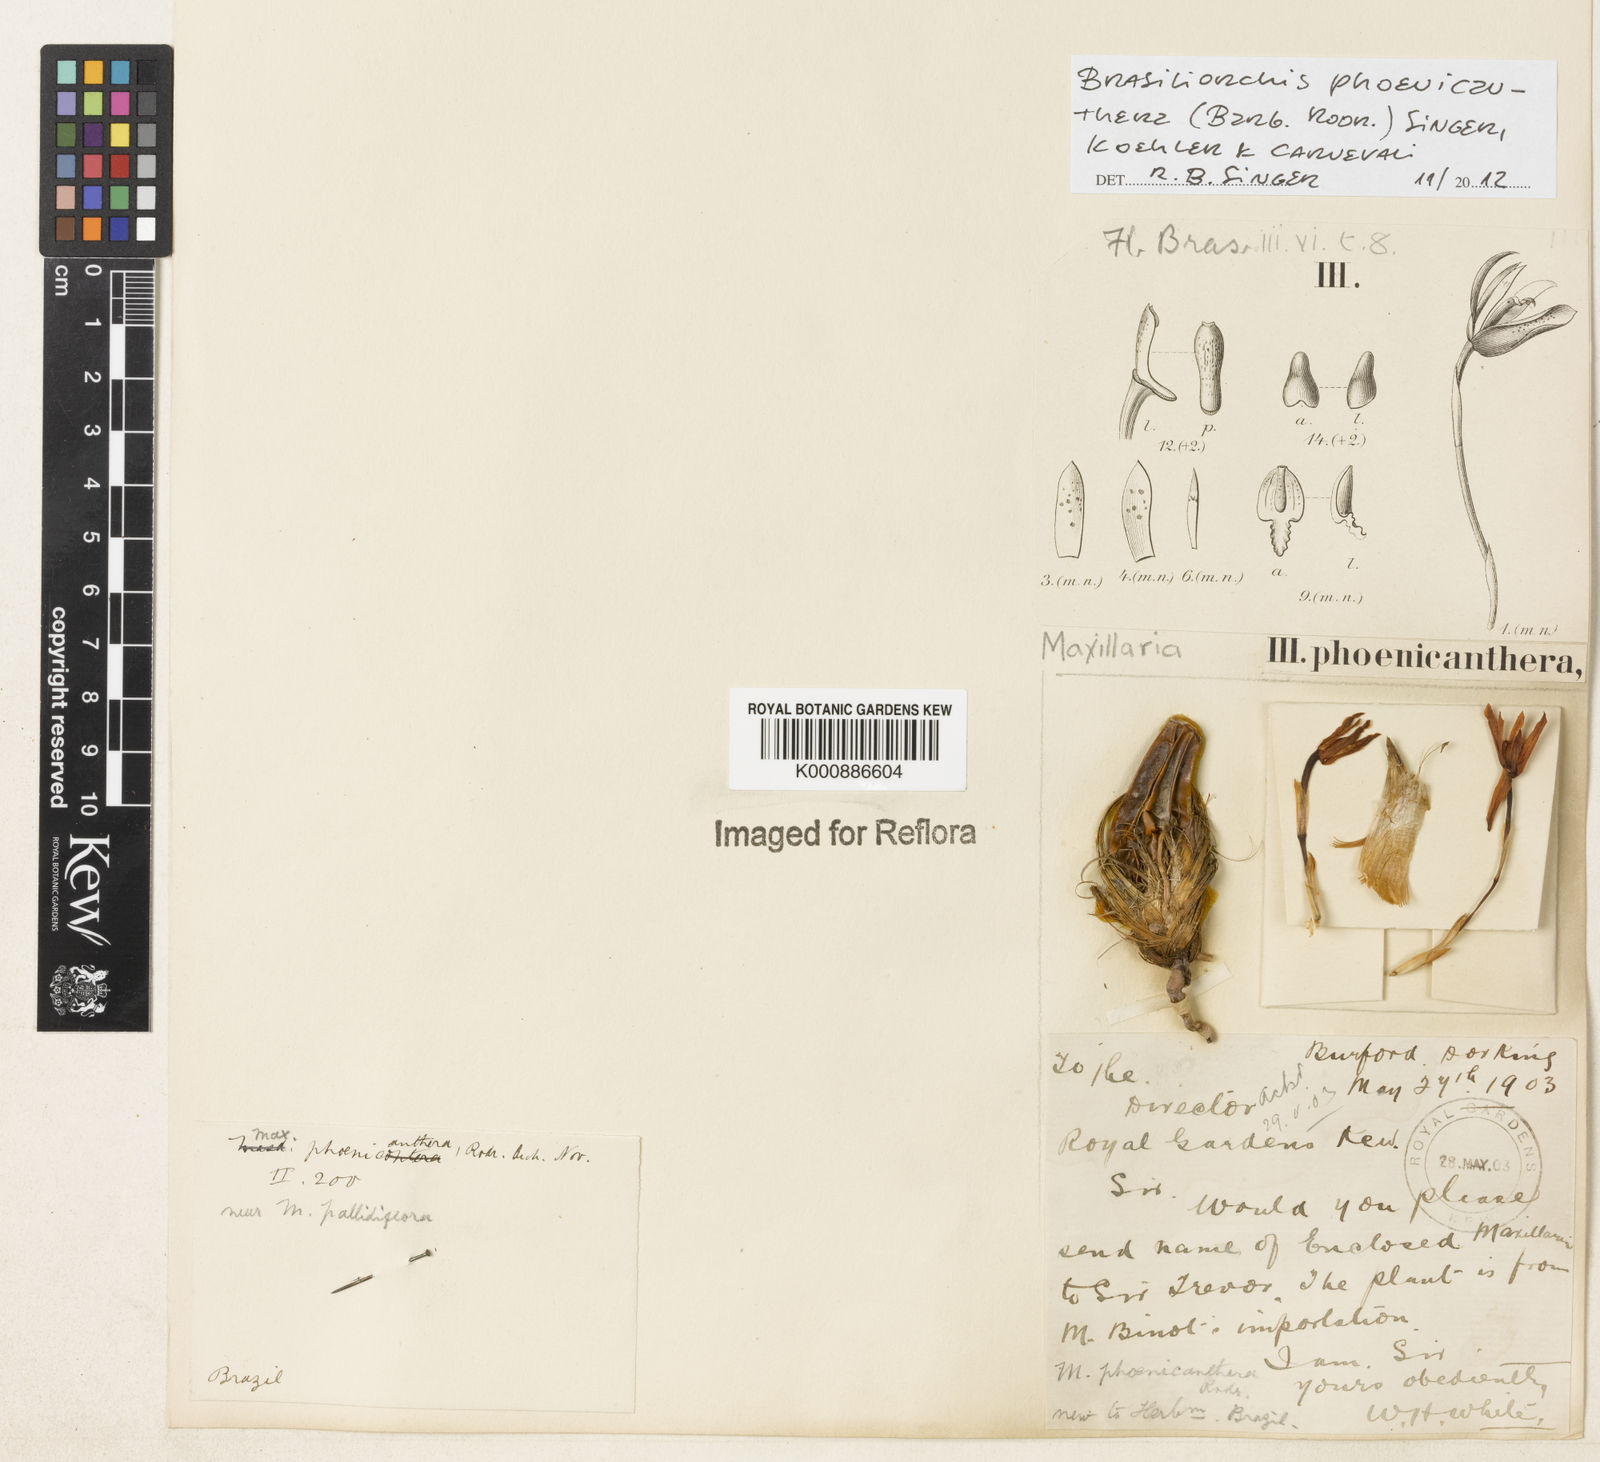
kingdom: Plantae
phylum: Tracheophyta
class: Liliopsida
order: Asparagales
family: Orchidaceae
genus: Maxillaria
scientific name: Maxillaria phoenicanthera
